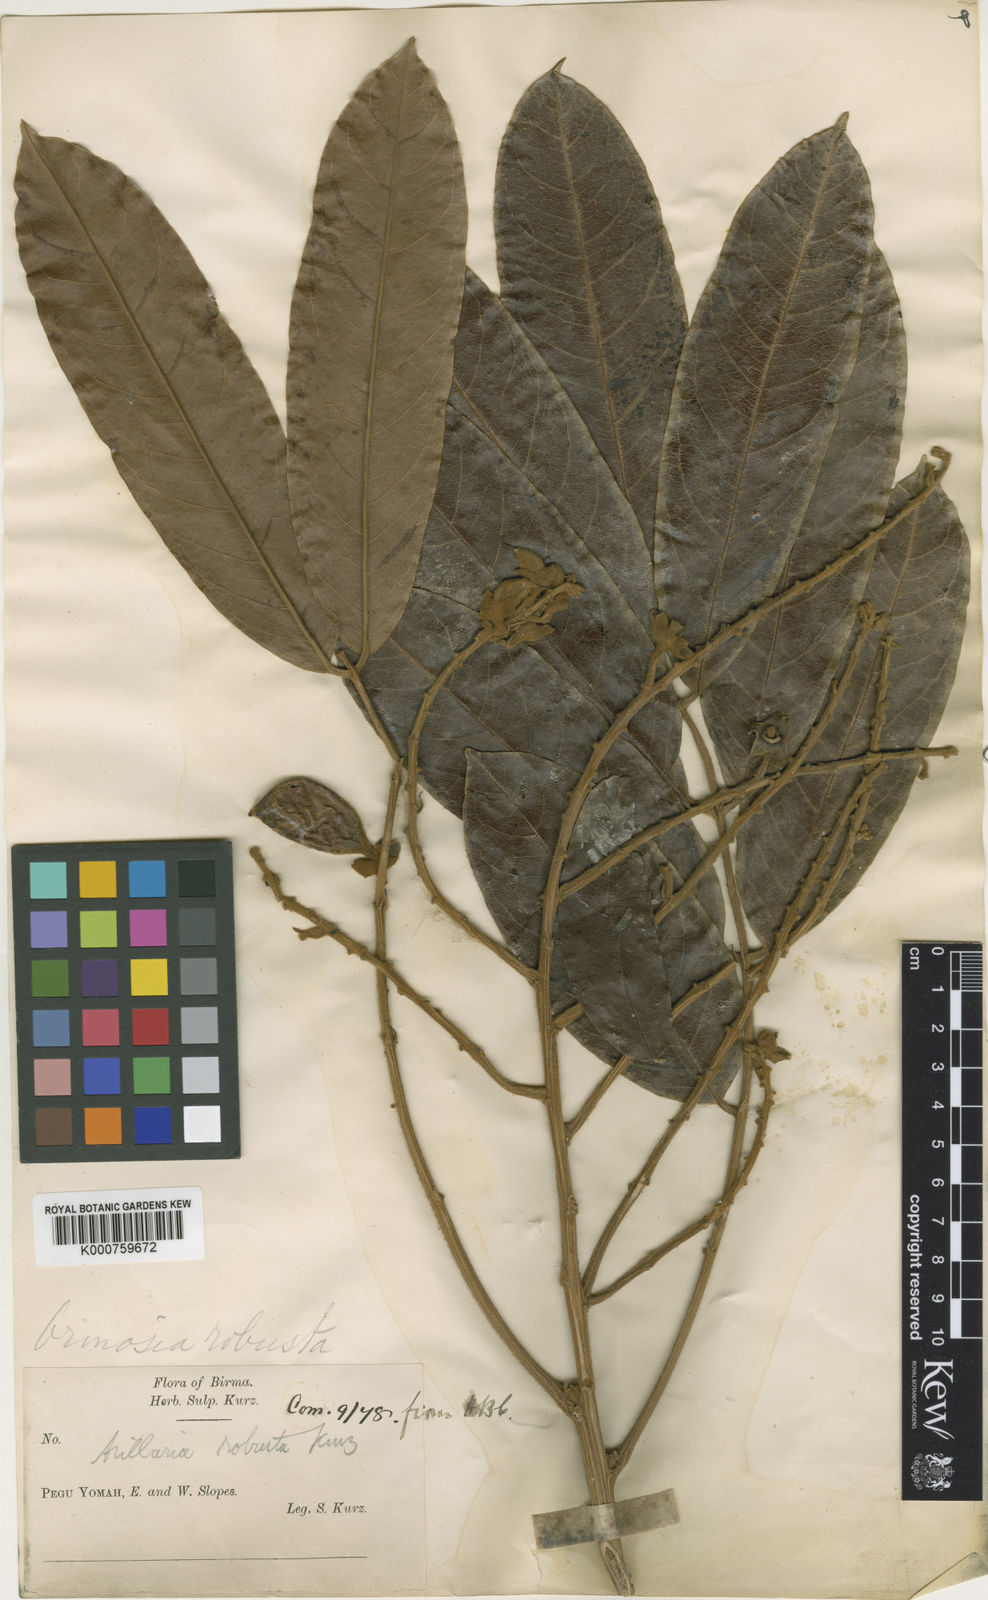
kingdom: Plantae
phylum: Tracheophyta
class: Magnoliopsida
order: Fabales
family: Fabaceae
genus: Ormosia
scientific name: Ormosia
